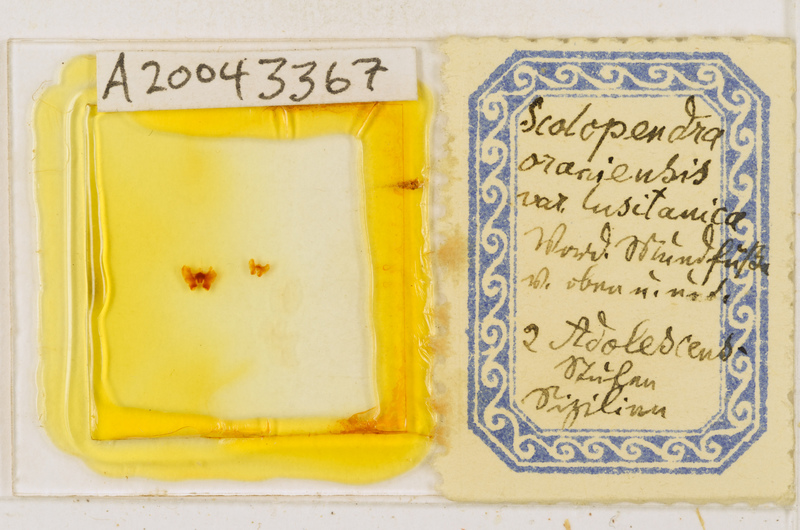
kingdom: Animalia
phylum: Arthropoda
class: Chilopoda
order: Scolopendromorpha
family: Scolopendridae
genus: Scolopendra
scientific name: Scolopendra oraniensis
